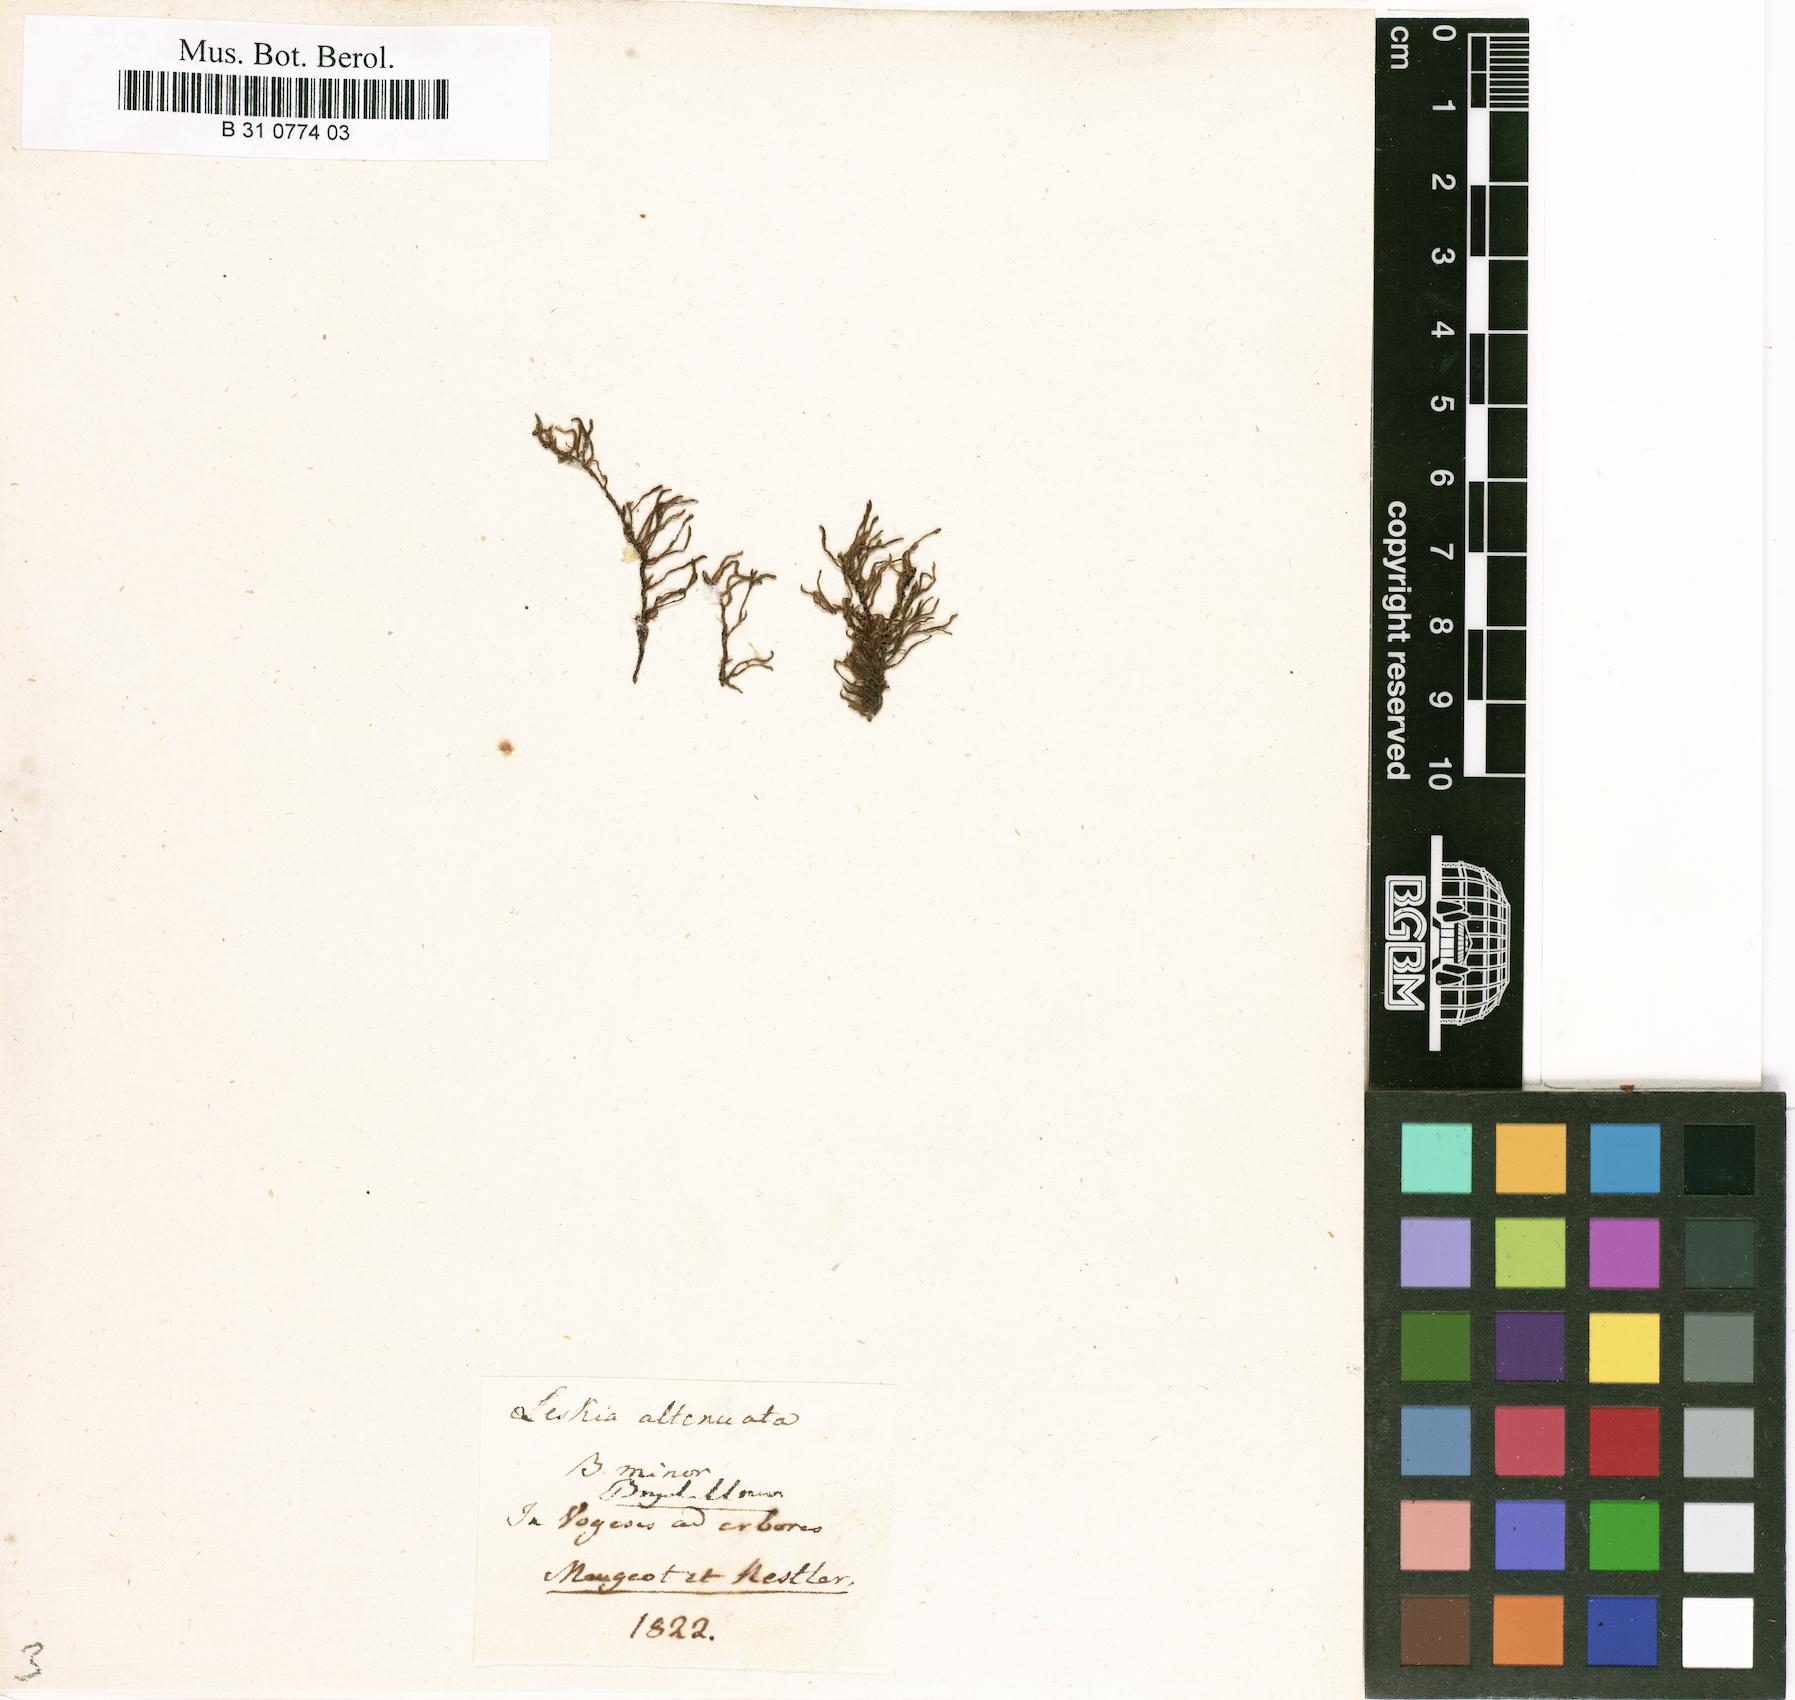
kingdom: Plantae
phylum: Bryophyta
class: Bryopsida
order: Hypnales
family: Neckeraceae
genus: Pseudanomodon
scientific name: Pseudanomodon attenuatus
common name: Tree-skirt moss
